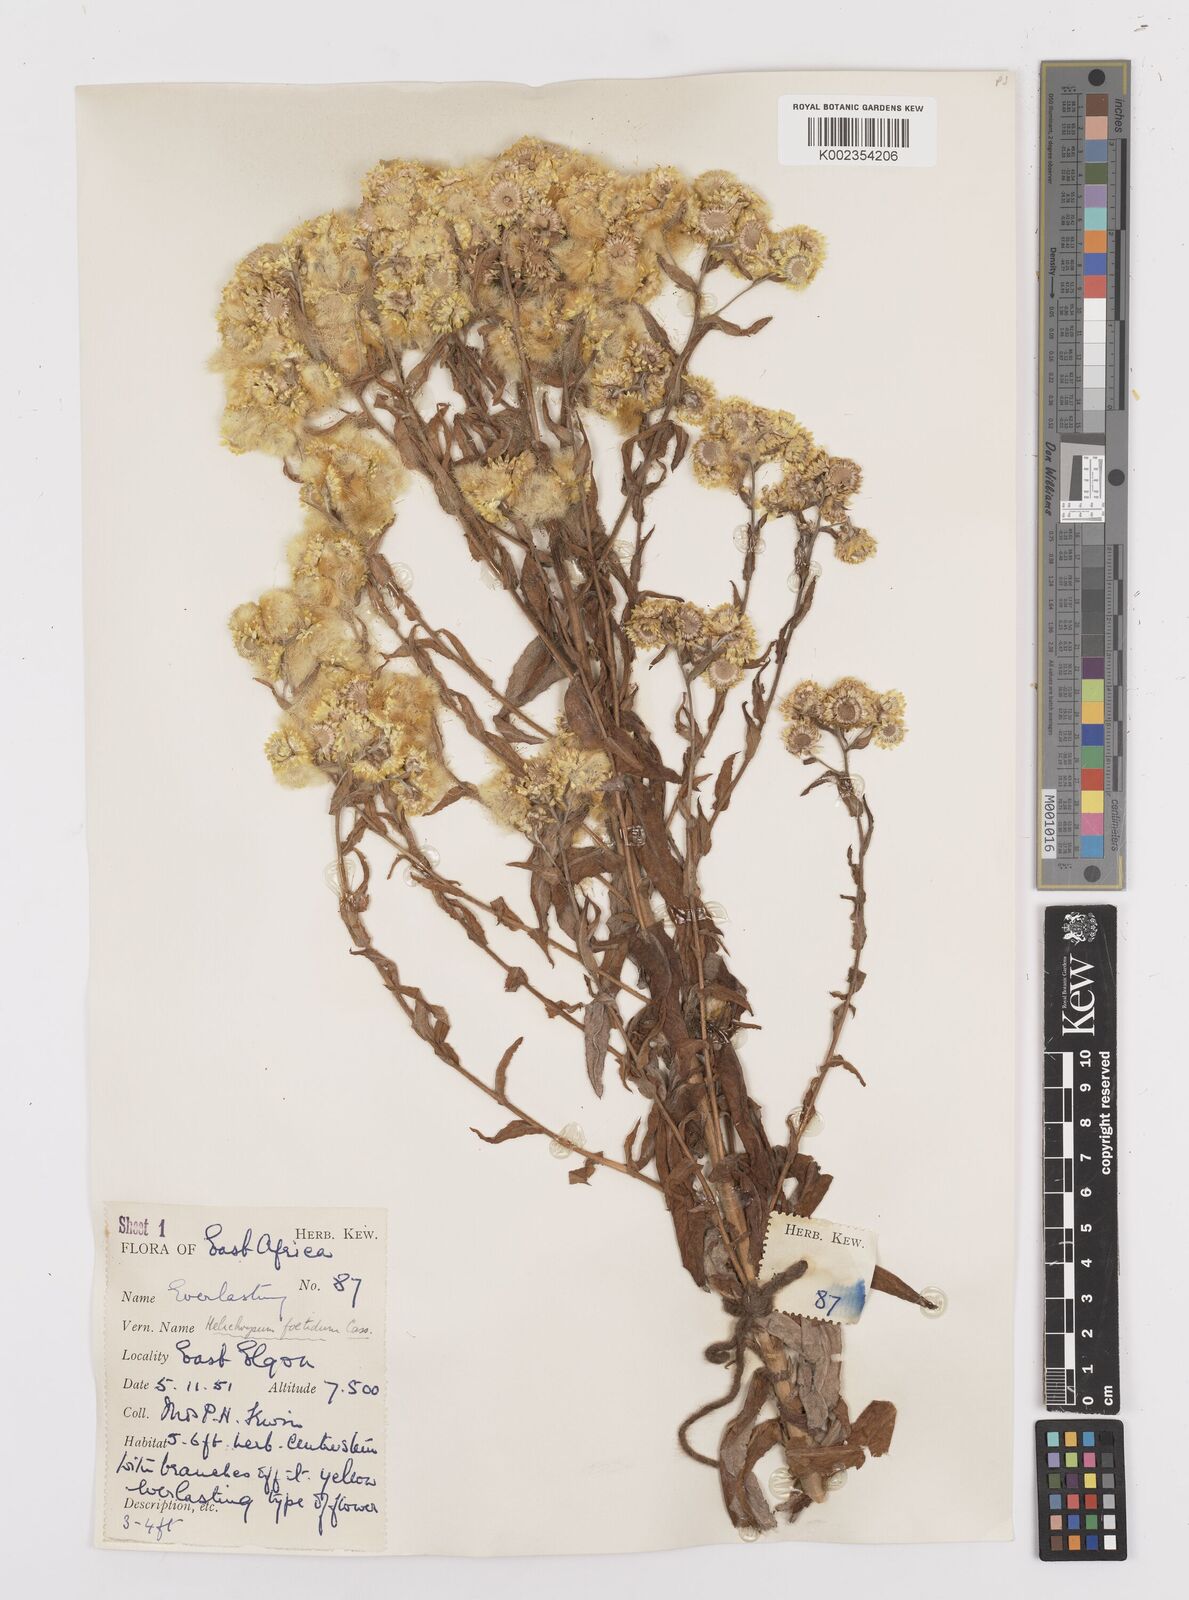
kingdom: Plantae
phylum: Tracheophyta
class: Magnoliopsida
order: Asterales
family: Asteraceae
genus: Helichrysum
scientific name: Helichrysum
